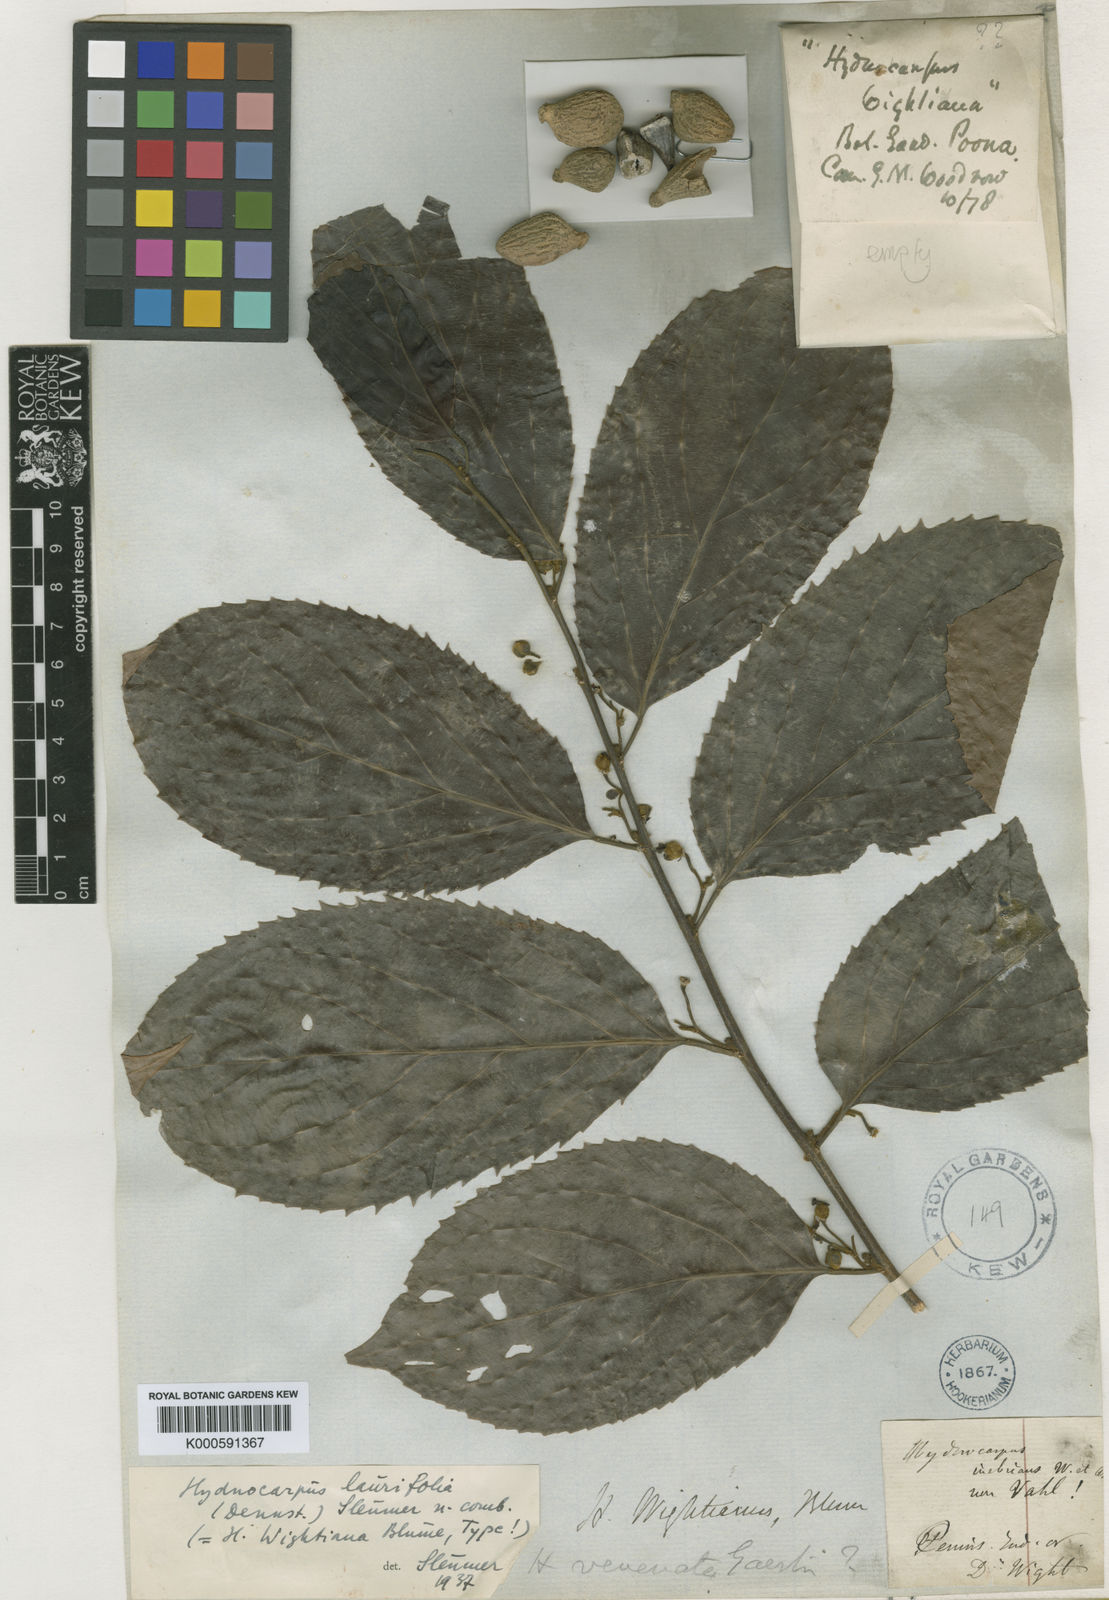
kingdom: Plantae
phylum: Tracheophyta
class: Magnoliopsida
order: Malpighiales
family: Achariaceae
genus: Hydnocarpus
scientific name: Hydnocarpus pentandrus
